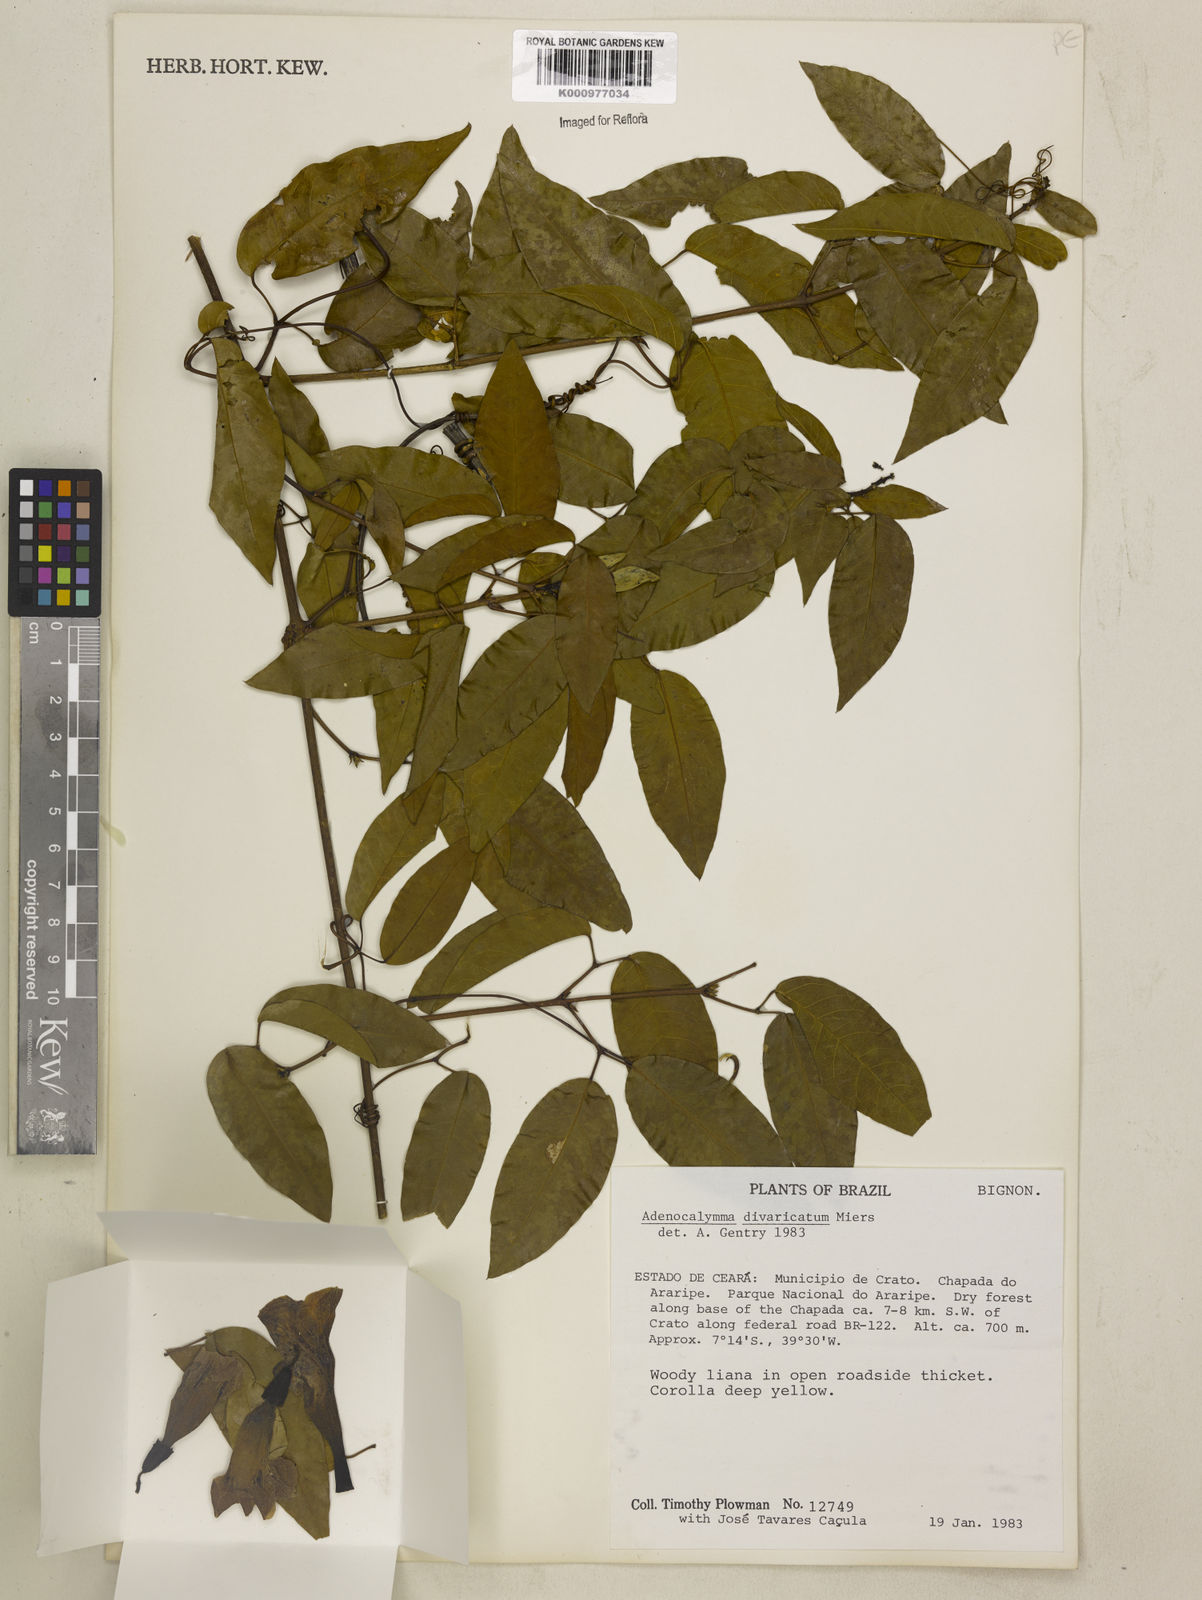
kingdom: Plantae
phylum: Tracheophyta
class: Magnoliopsida
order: Lamiales
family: Bignoniaceae
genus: Adenocalymma
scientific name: Adenocalymma divaricatum
